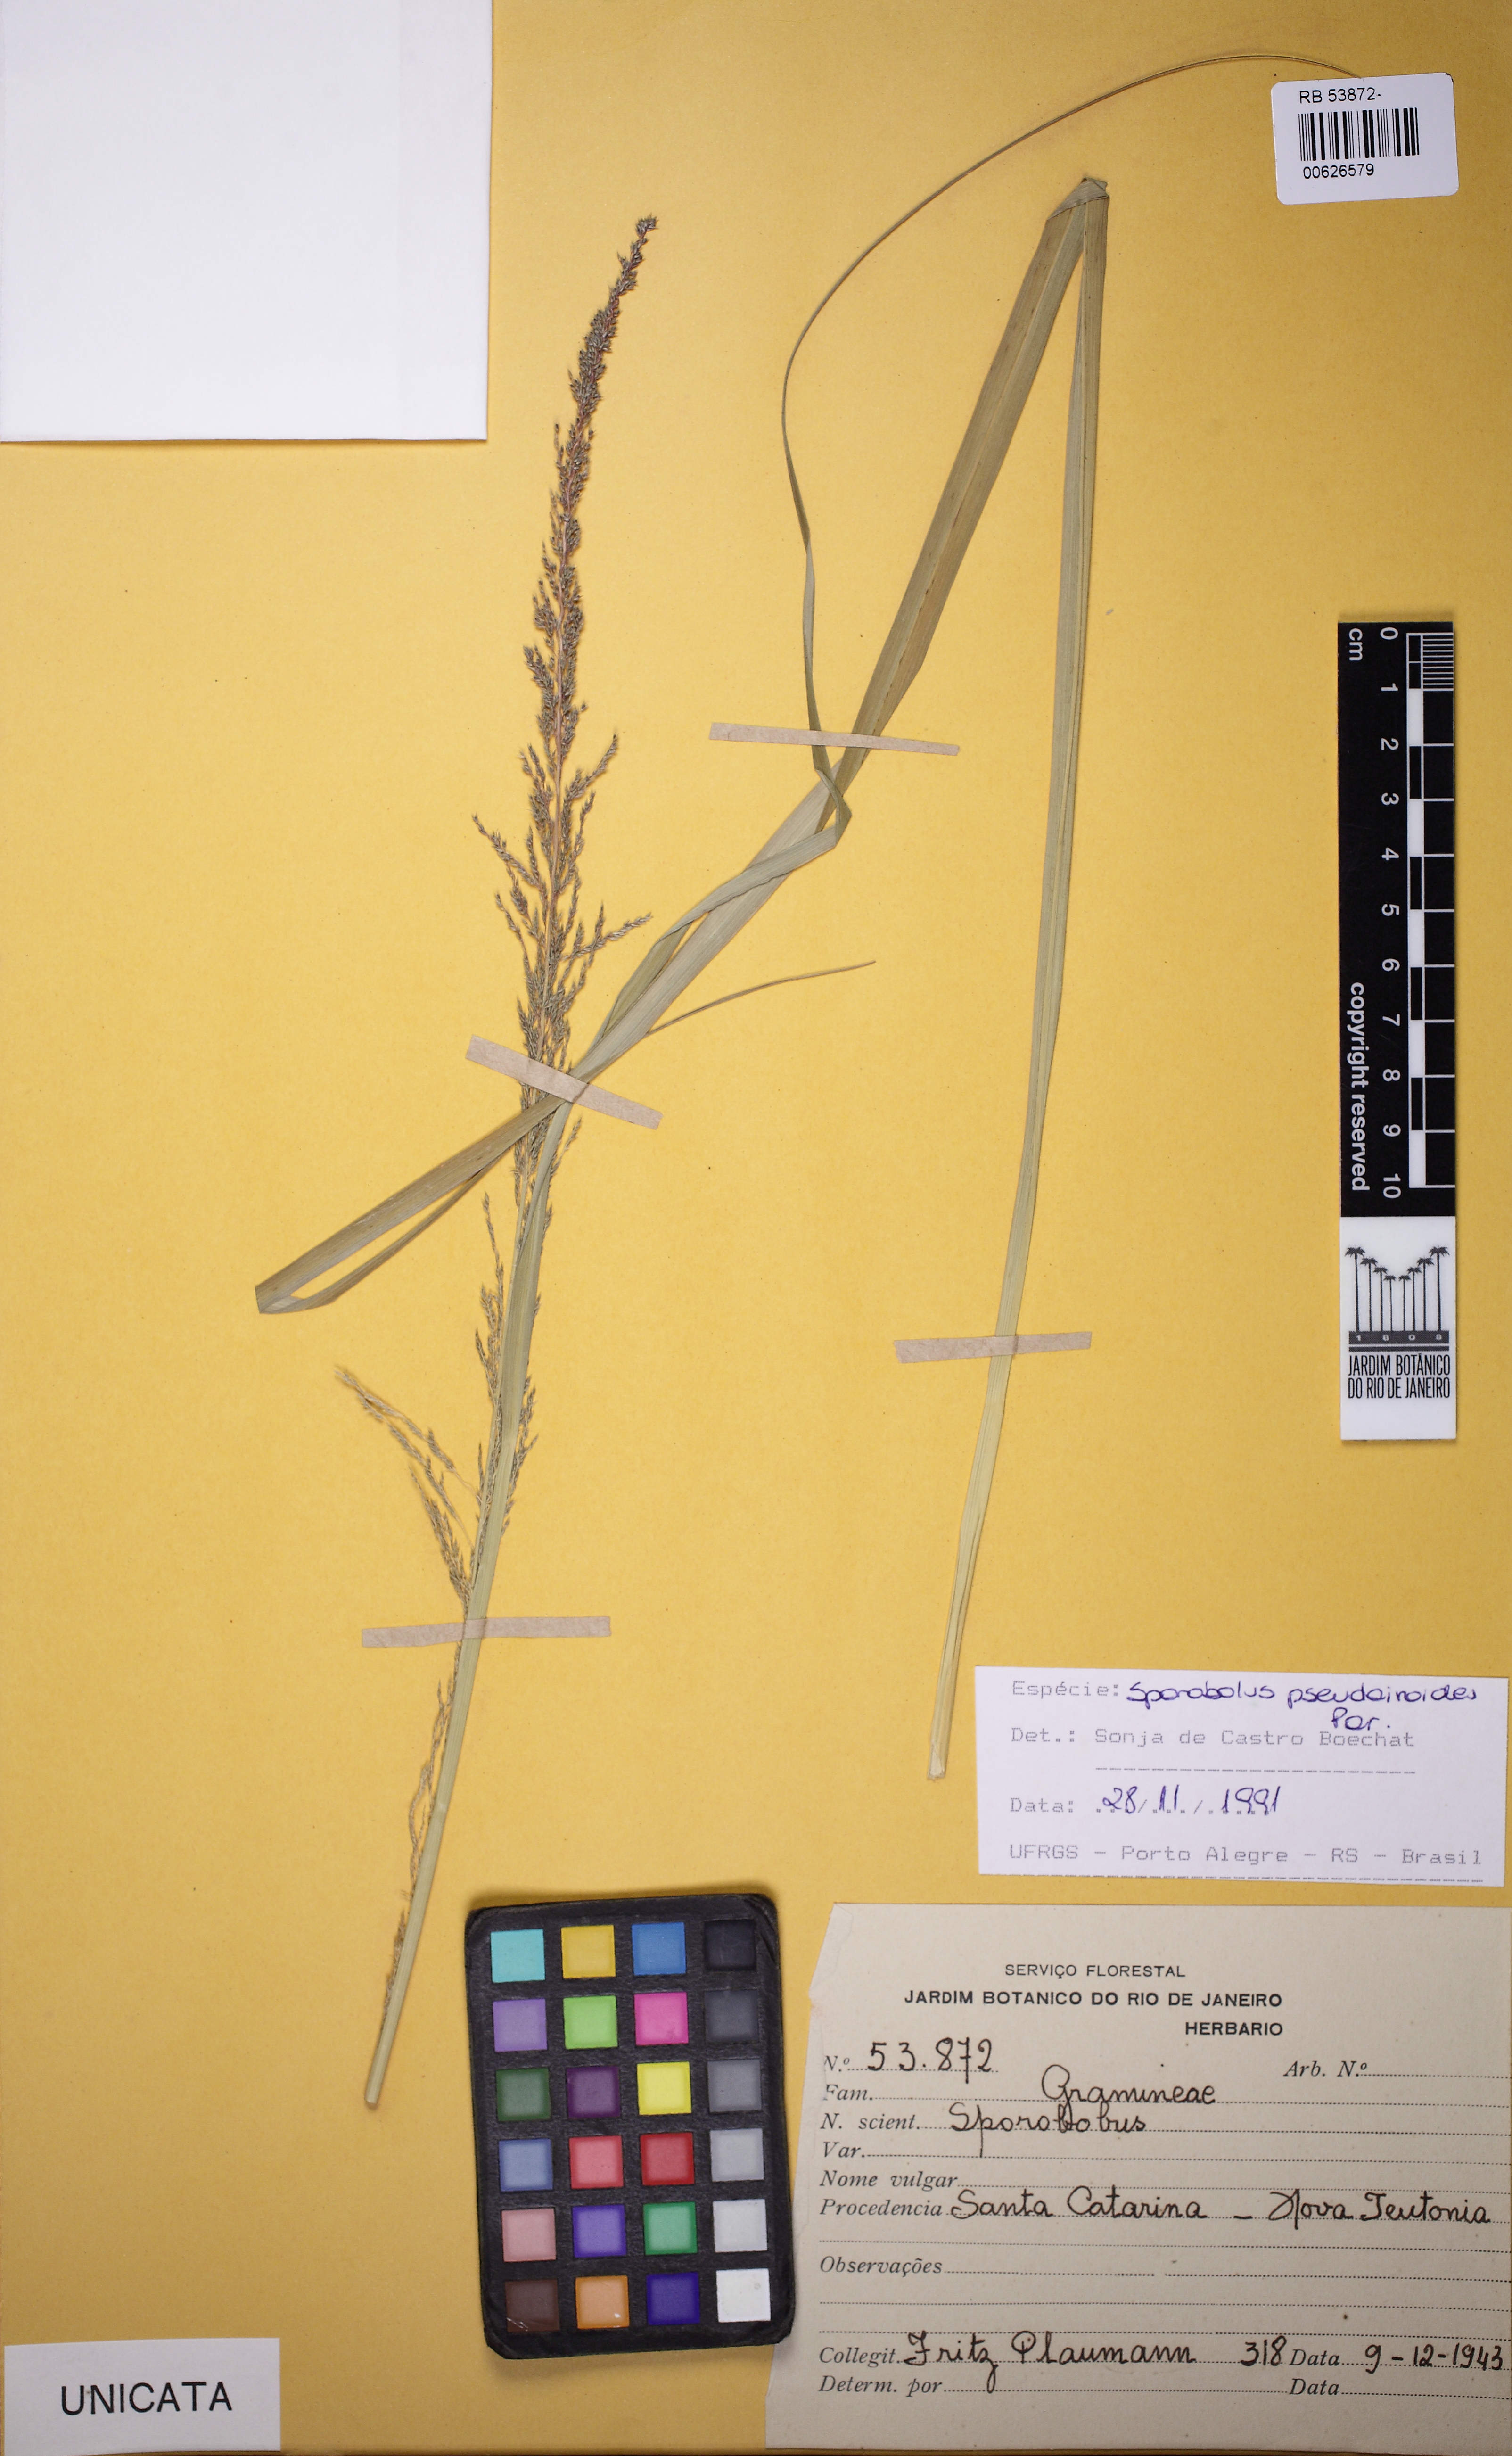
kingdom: Plantae
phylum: Tracheophyta
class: Liliopsida
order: Poales
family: Poaceae
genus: Sporobolus
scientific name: Sporobolus pseudairoides
